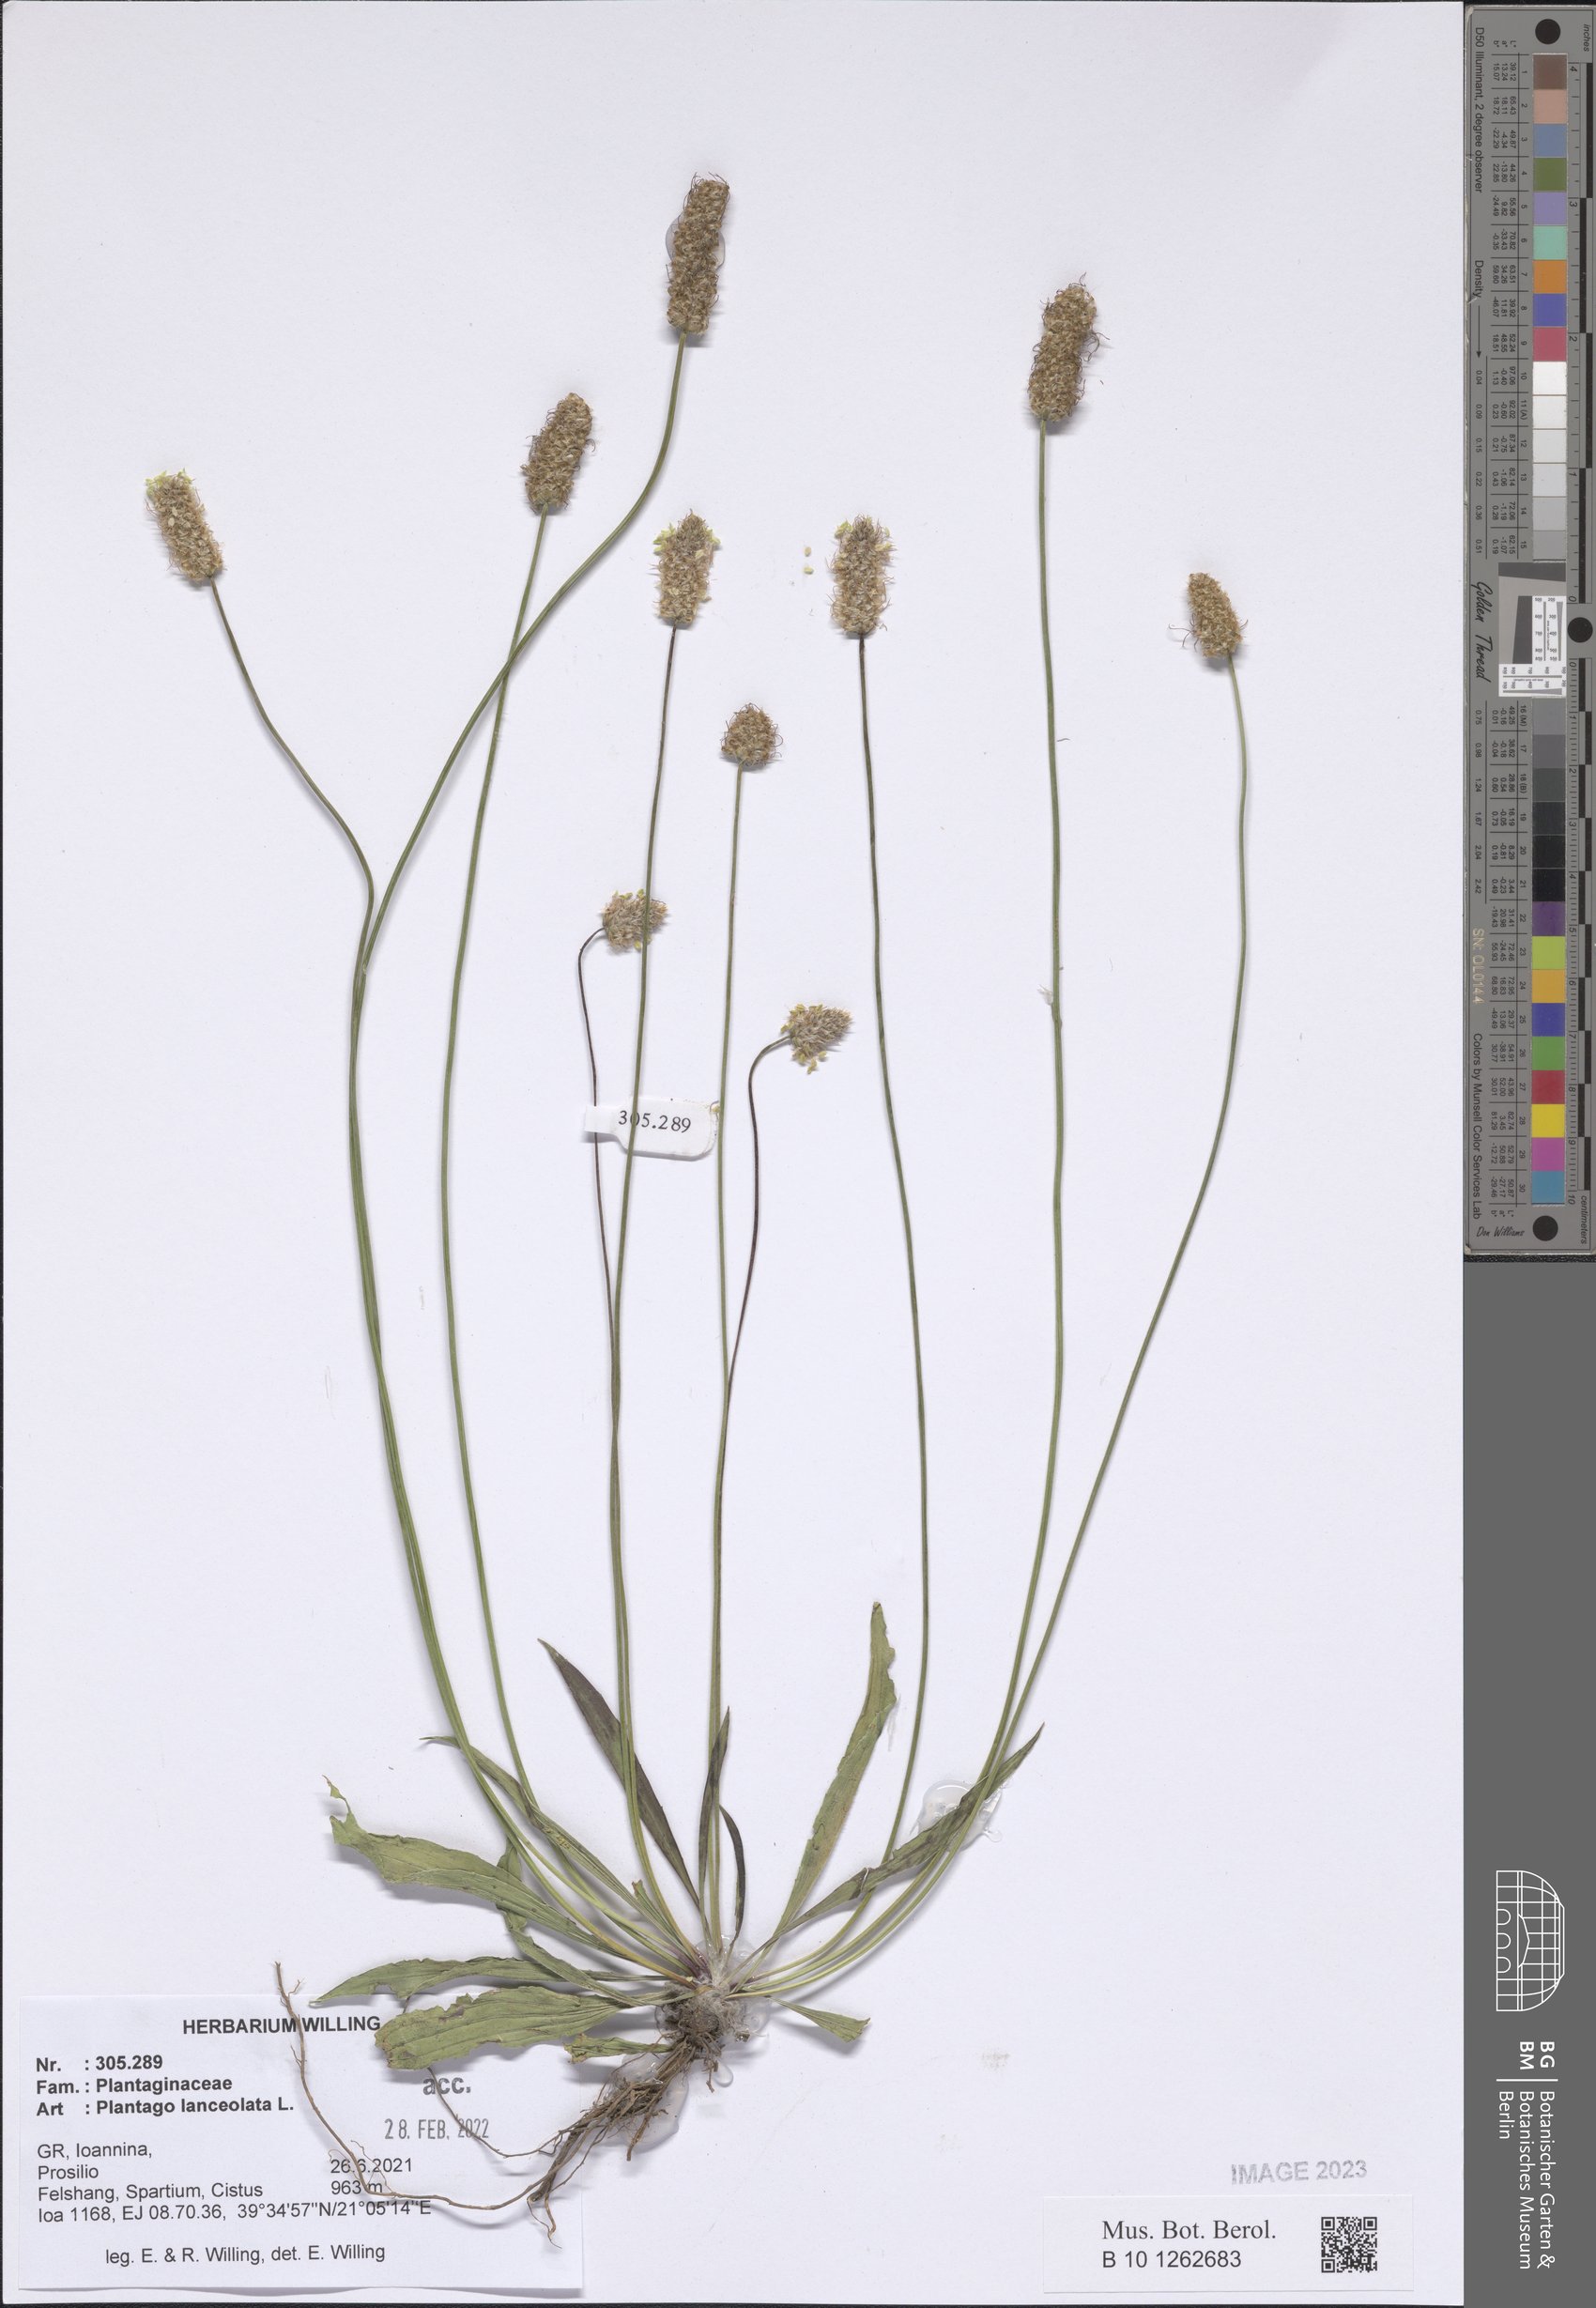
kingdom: Plantae
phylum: Tracheophyta
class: Magnoliopsida
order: Lamiales
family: Plantaginaceae
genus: Plantago
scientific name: Plantago lanceolata
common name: Ribwort plantain
